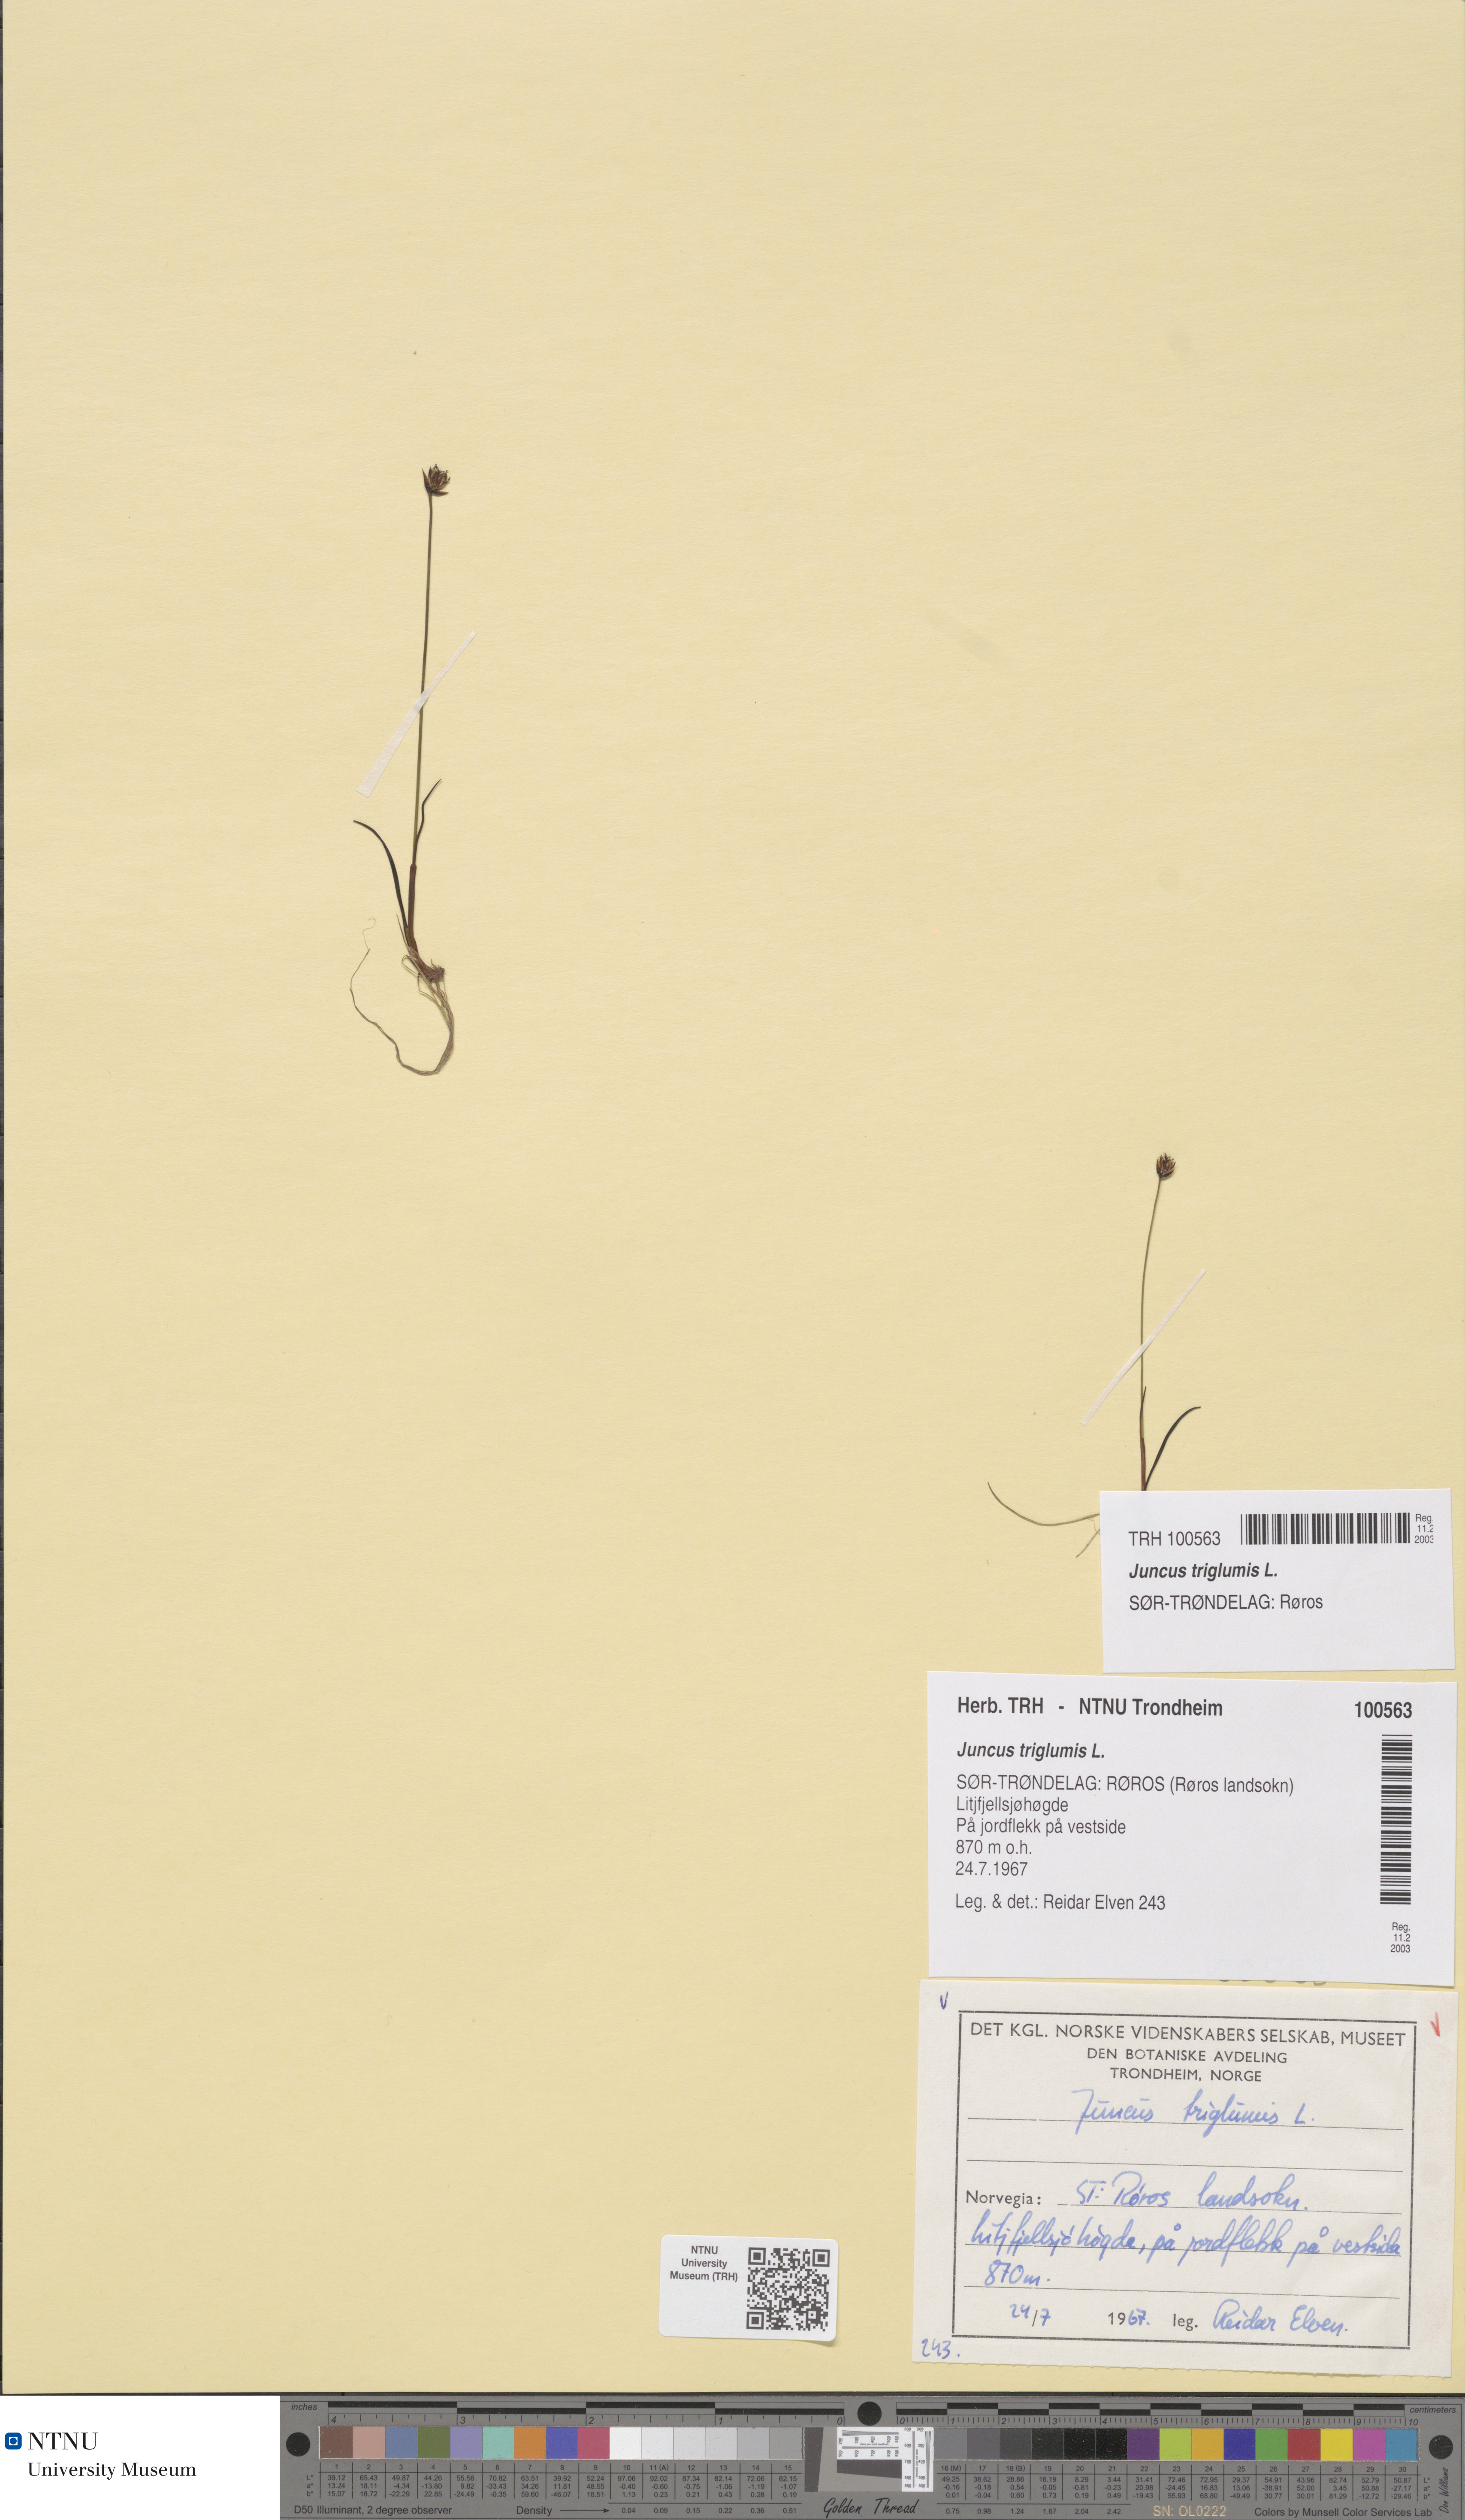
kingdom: Plantae
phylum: Tracheophyta
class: Liliopsida
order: Poales
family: Juncaceae
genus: Juncus
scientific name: Juncus triglumis
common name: Three-flowered rush
